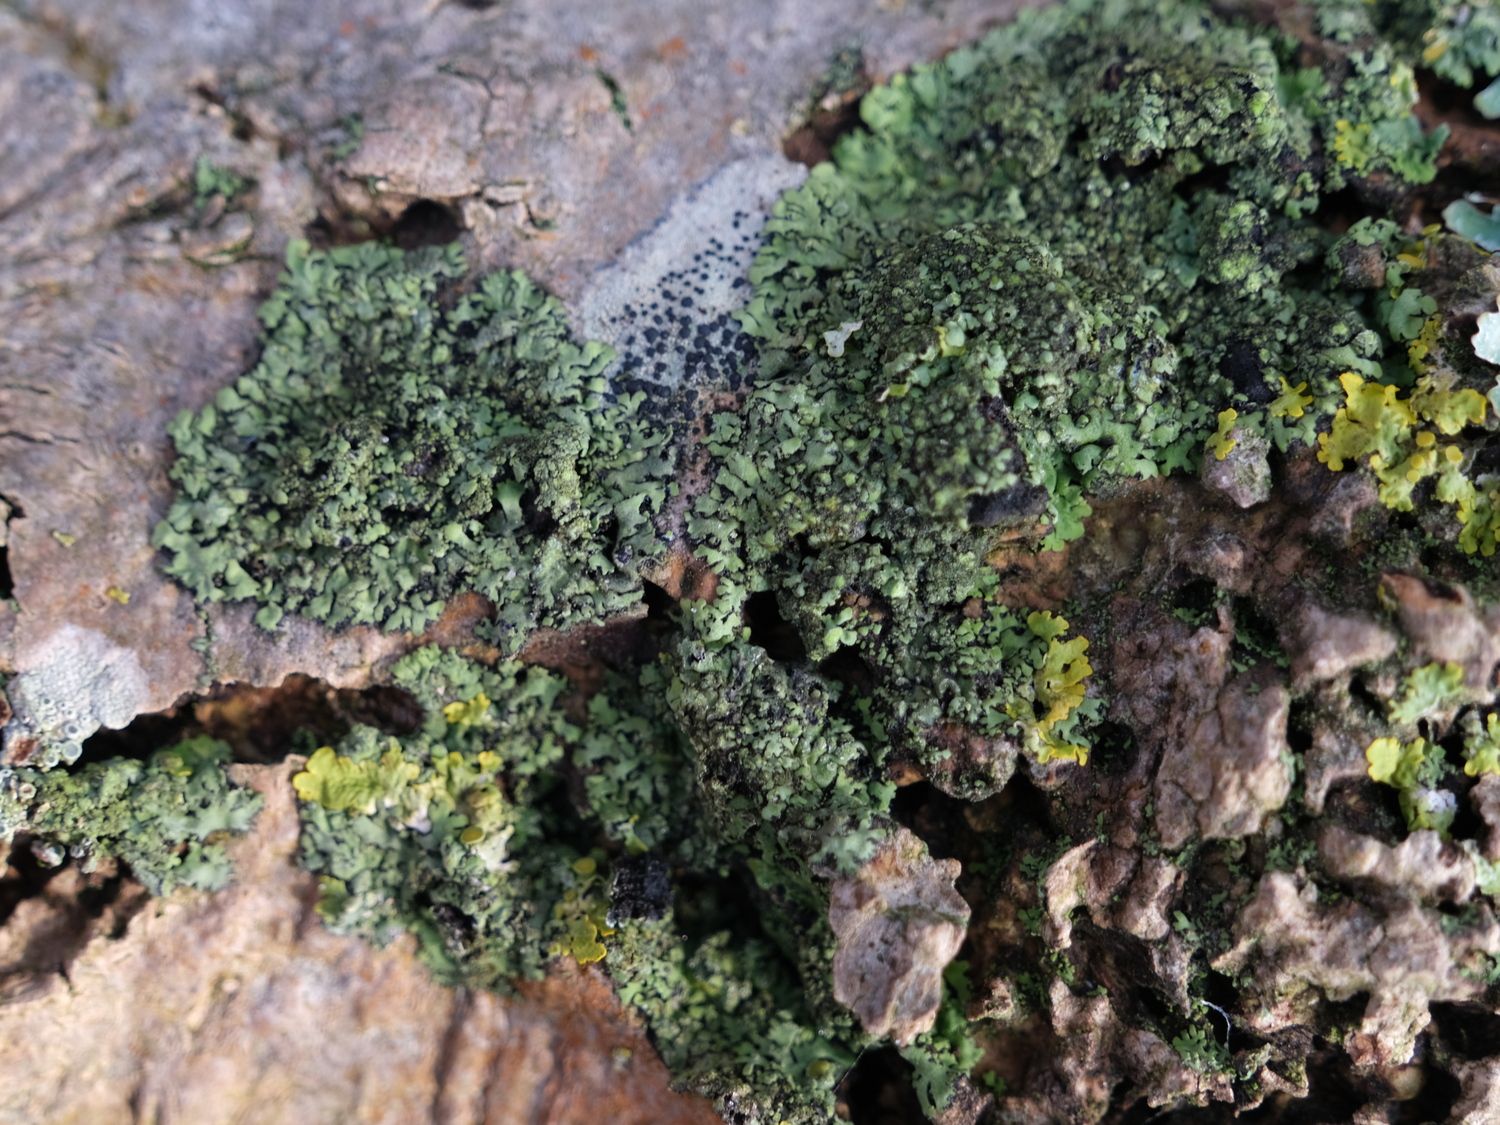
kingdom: Fungi
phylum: Ascomycota
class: Lecanoromycetes
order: Caliciales
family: Physciaceae
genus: Phaeophyscia
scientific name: Phaeophyscia orbicularis
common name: grågrøn rosetlav
